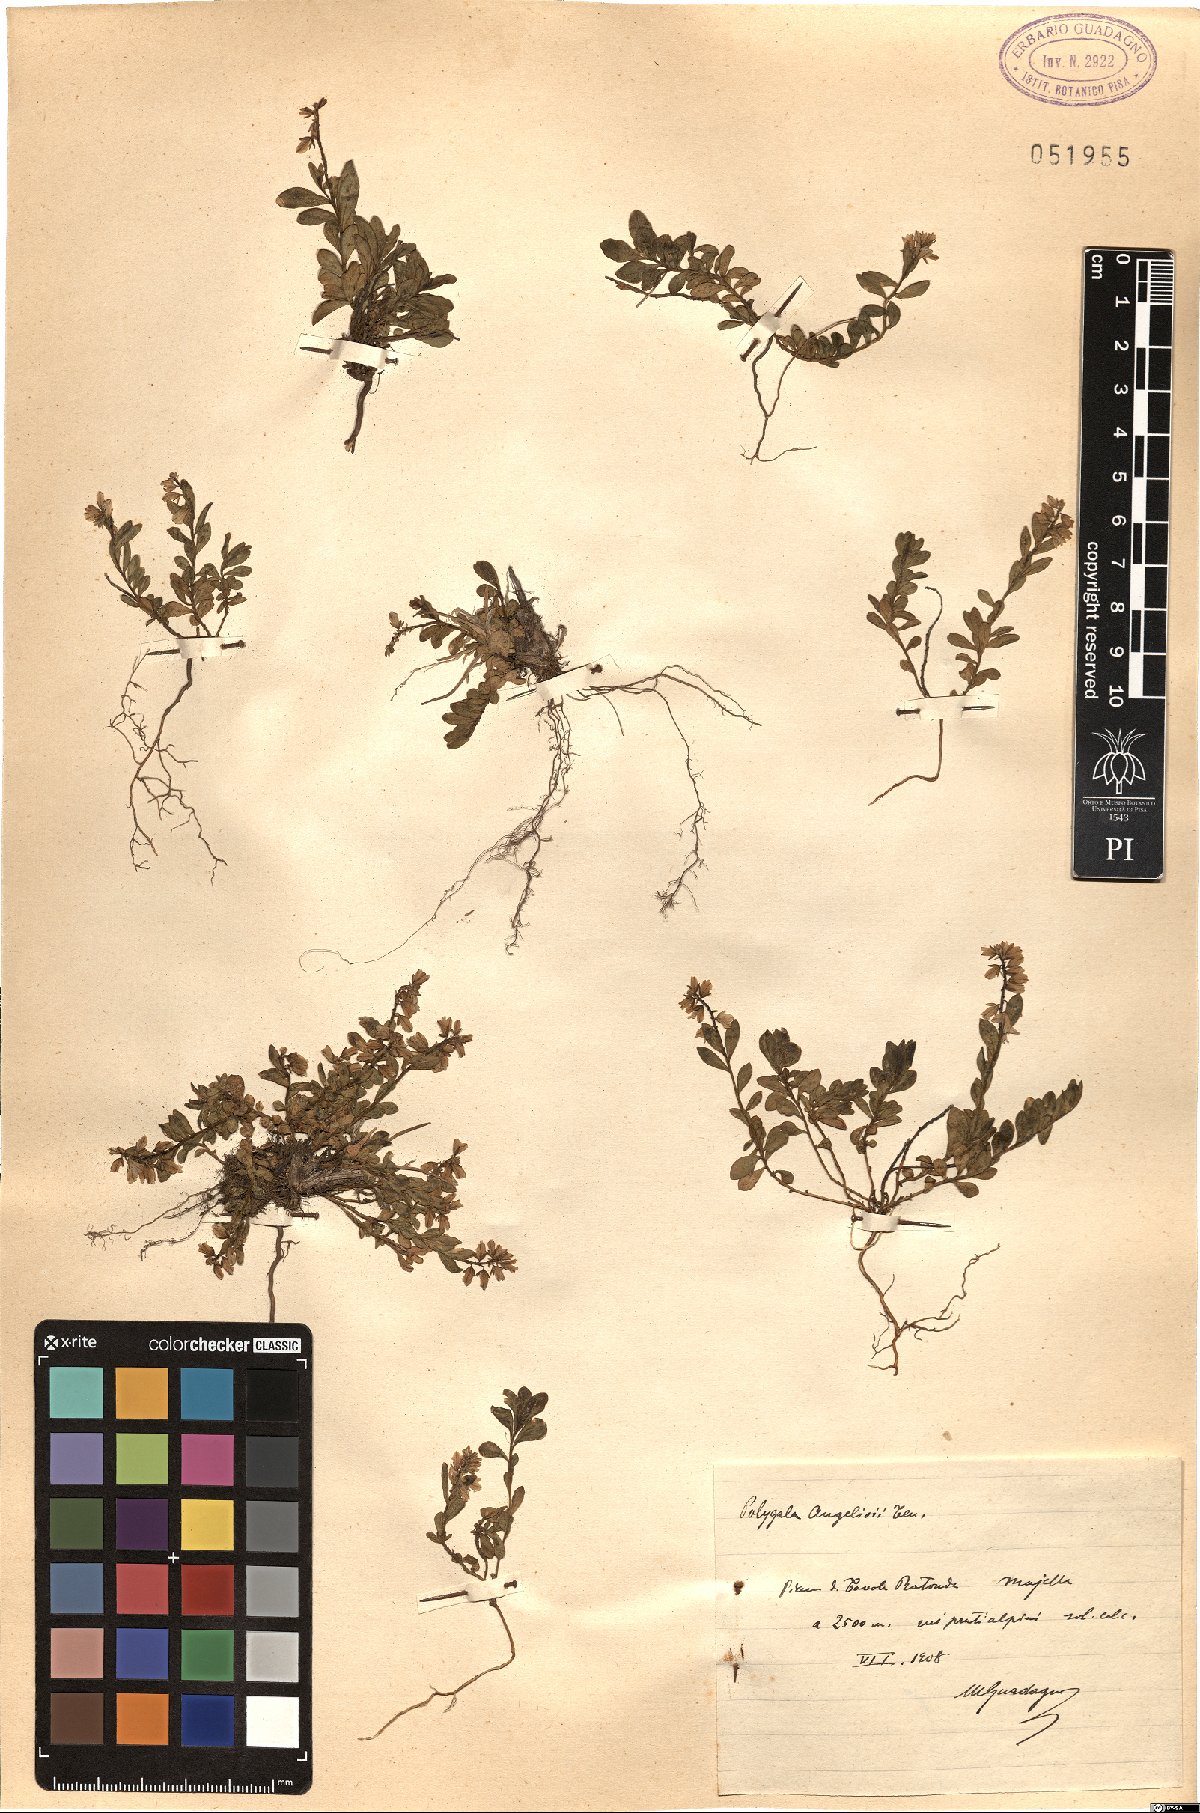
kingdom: Plantae
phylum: Tracheophyta
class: Magnoliopsida
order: Fabales
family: Polygalaceae
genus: Polygala
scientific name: Polygala angelisia
